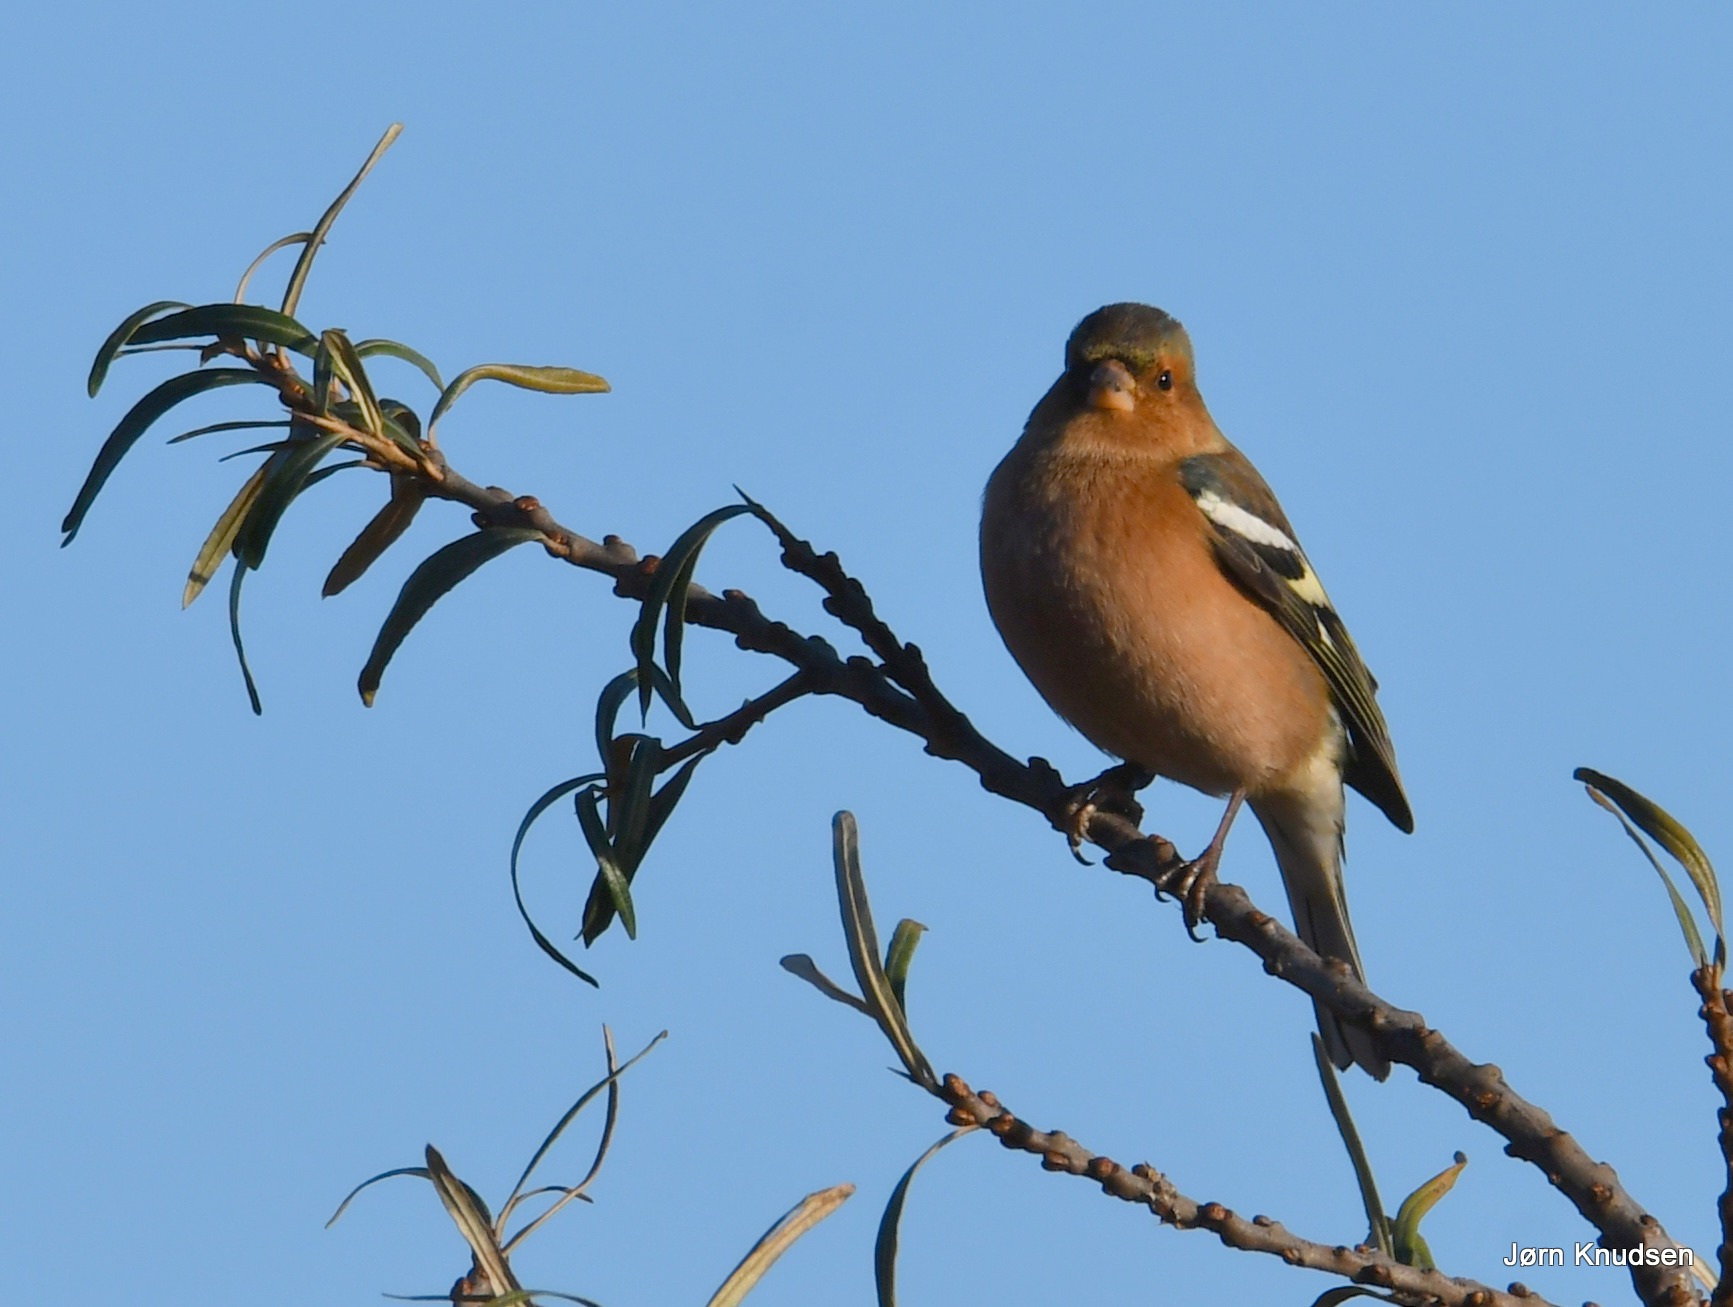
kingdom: Animalia
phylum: Chordata
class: Aves
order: Passeriformes
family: Fringillidae
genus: Fringilla
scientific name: Fringilla coelebs
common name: Bogfinke
